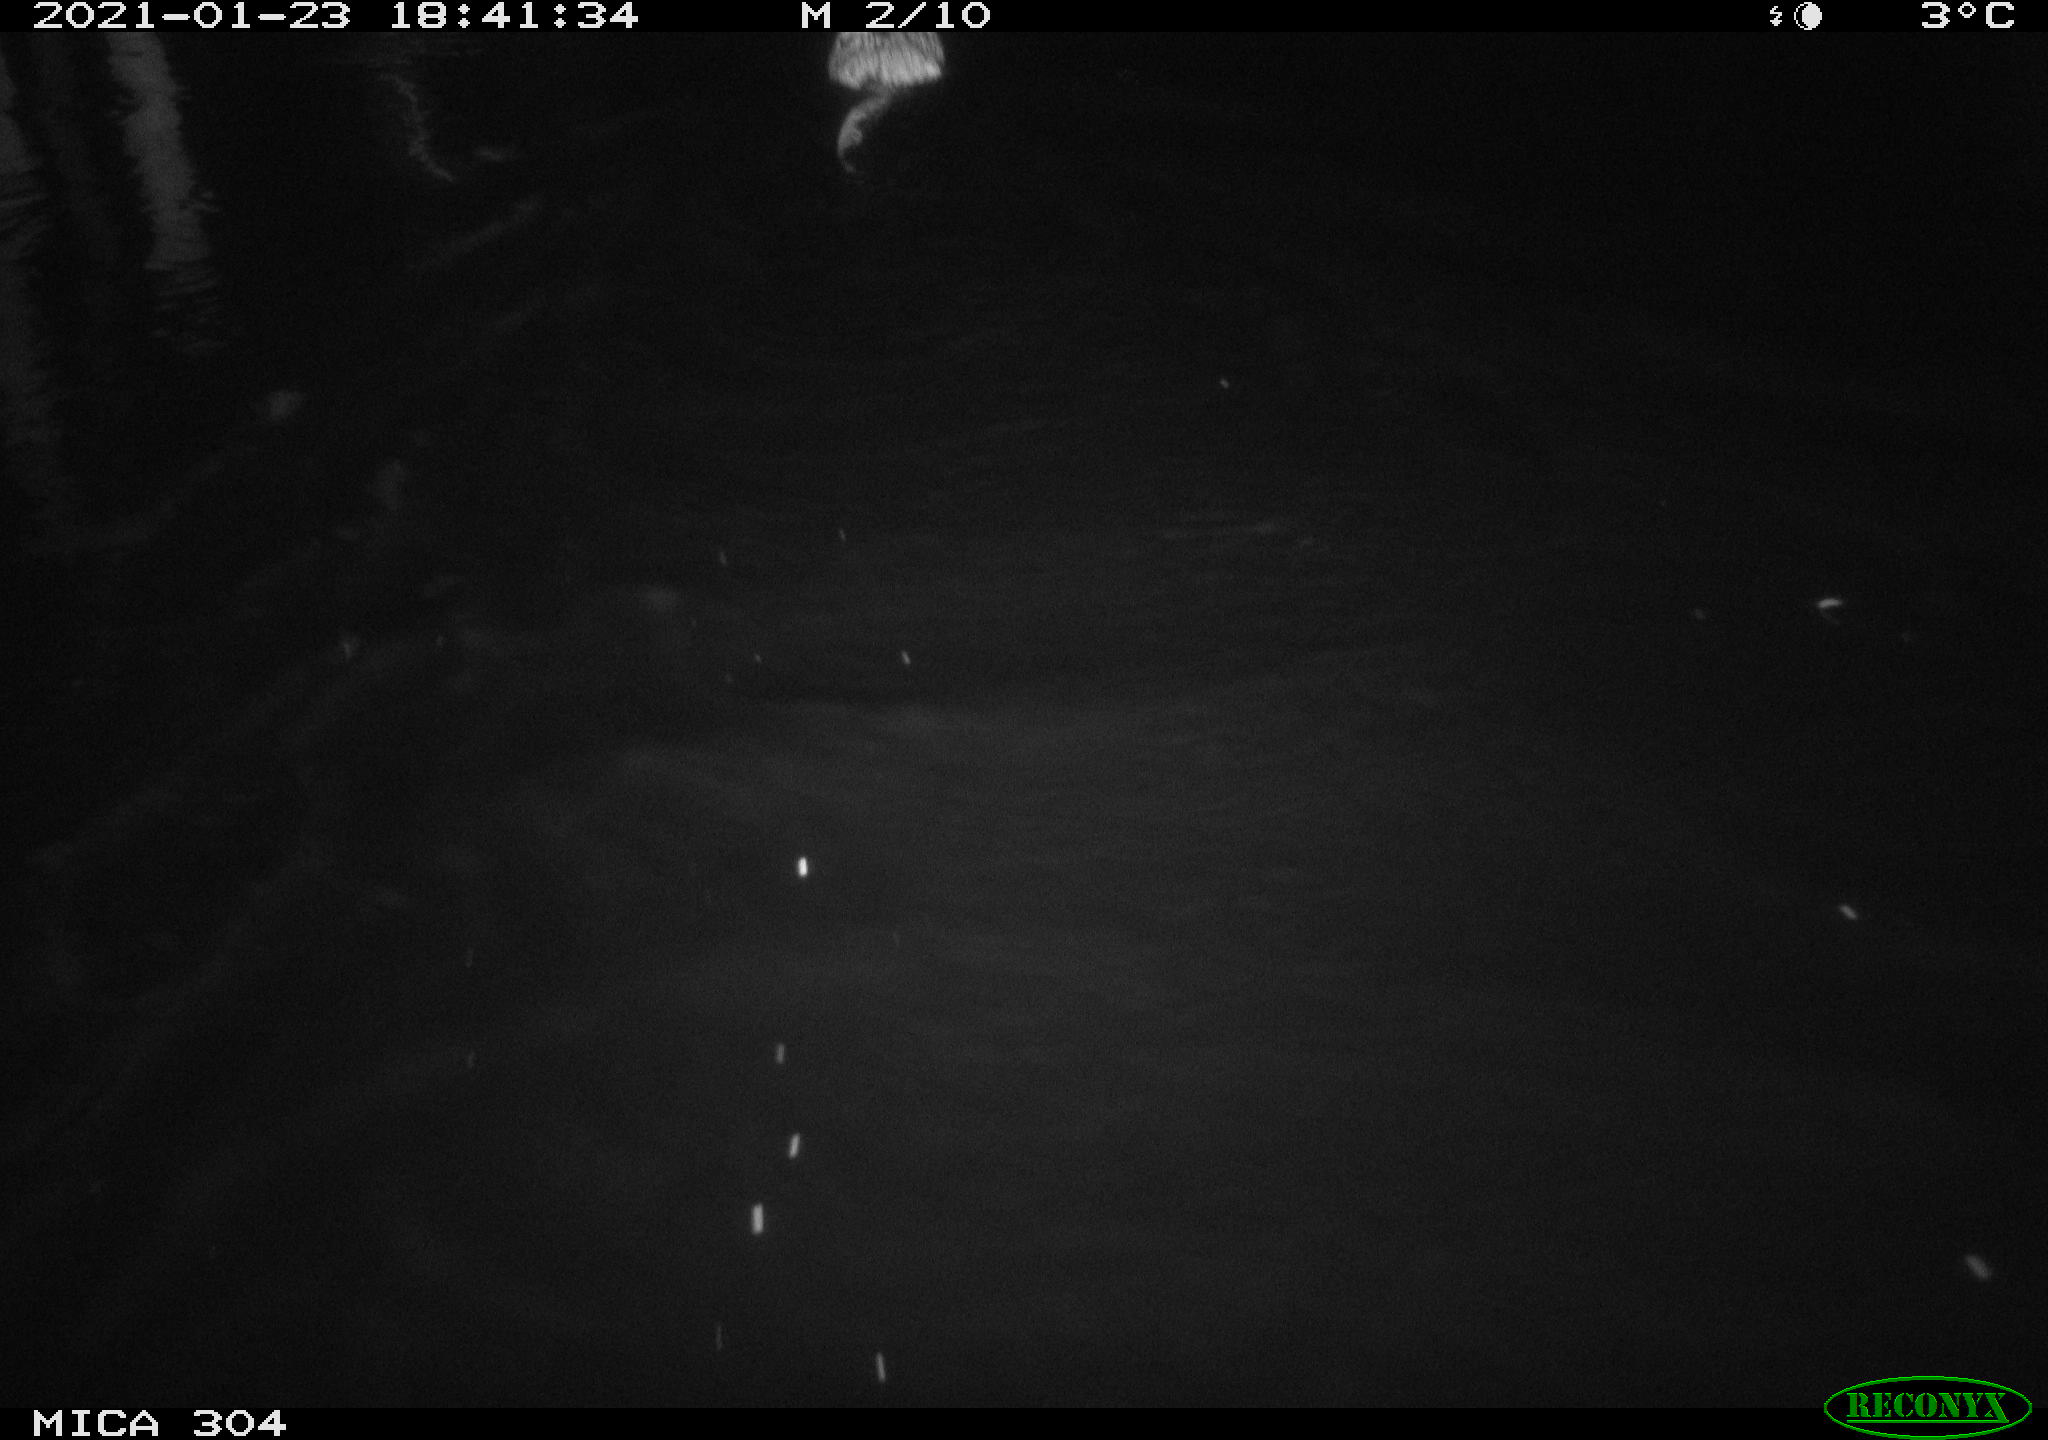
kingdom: Animalia
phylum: Chordata
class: Mammalia
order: Rodentia
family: Cricetidae
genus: Ondatra
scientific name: Ondatra zibethicus
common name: Muskrat
